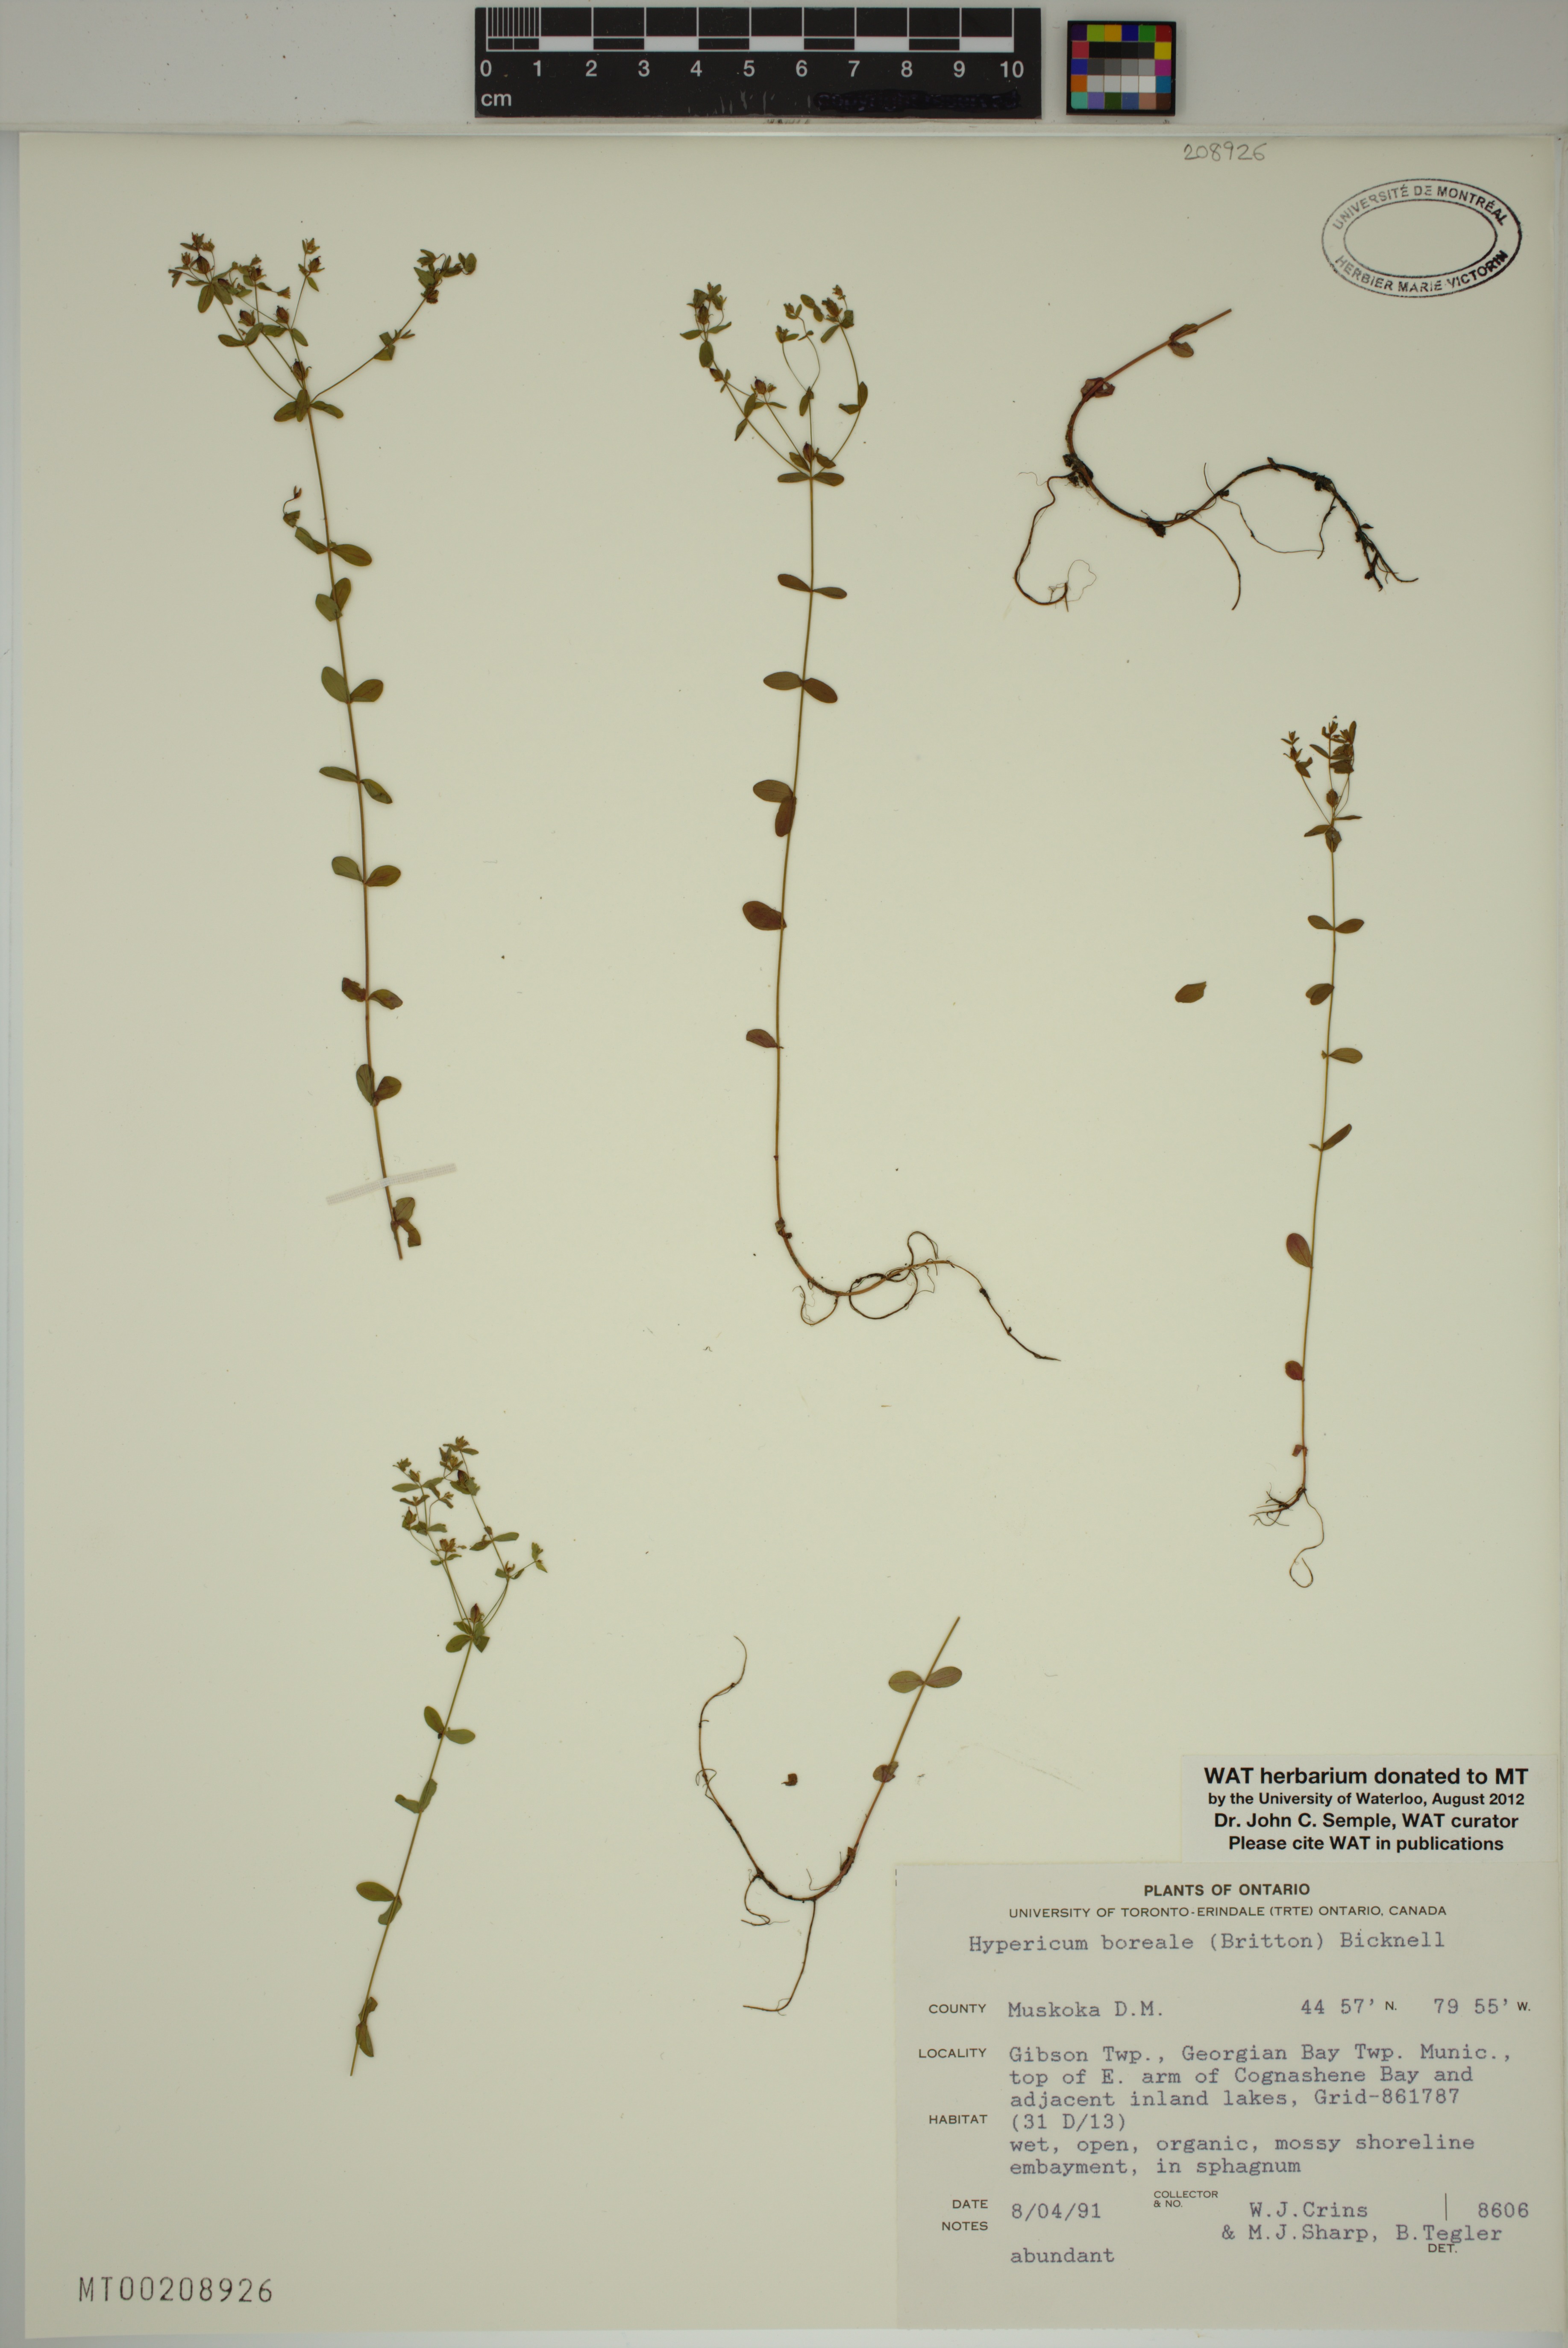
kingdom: Plantae
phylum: Tracheophyta
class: Magnoliopsida
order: Malpighiales
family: Hypericaceae
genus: Hypericum
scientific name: Hypericum boreale
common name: Northern bog st. john's-wort
